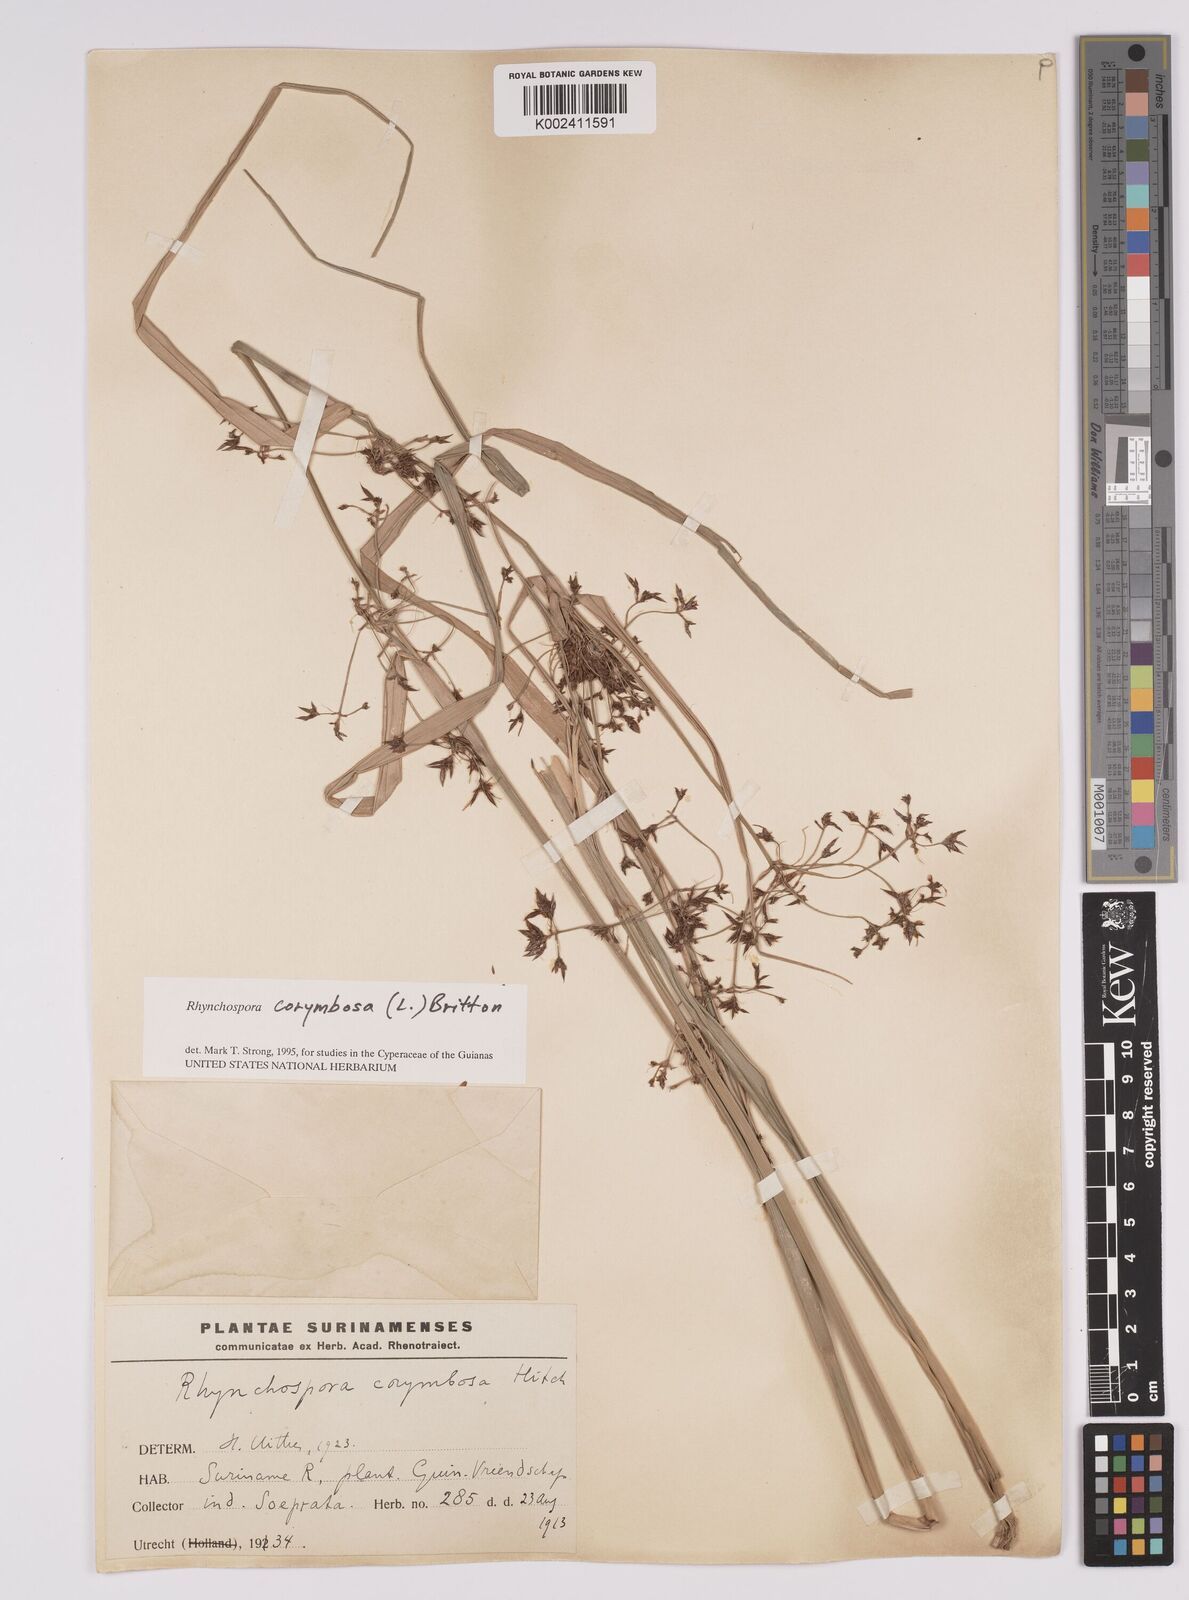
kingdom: Plantae
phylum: Tracheophyta
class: Liliopsida
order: Poales
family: Cyperaceae
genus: Rhynchospora
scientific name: Rhynchospora corymbosa
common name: Golden beak sedge
